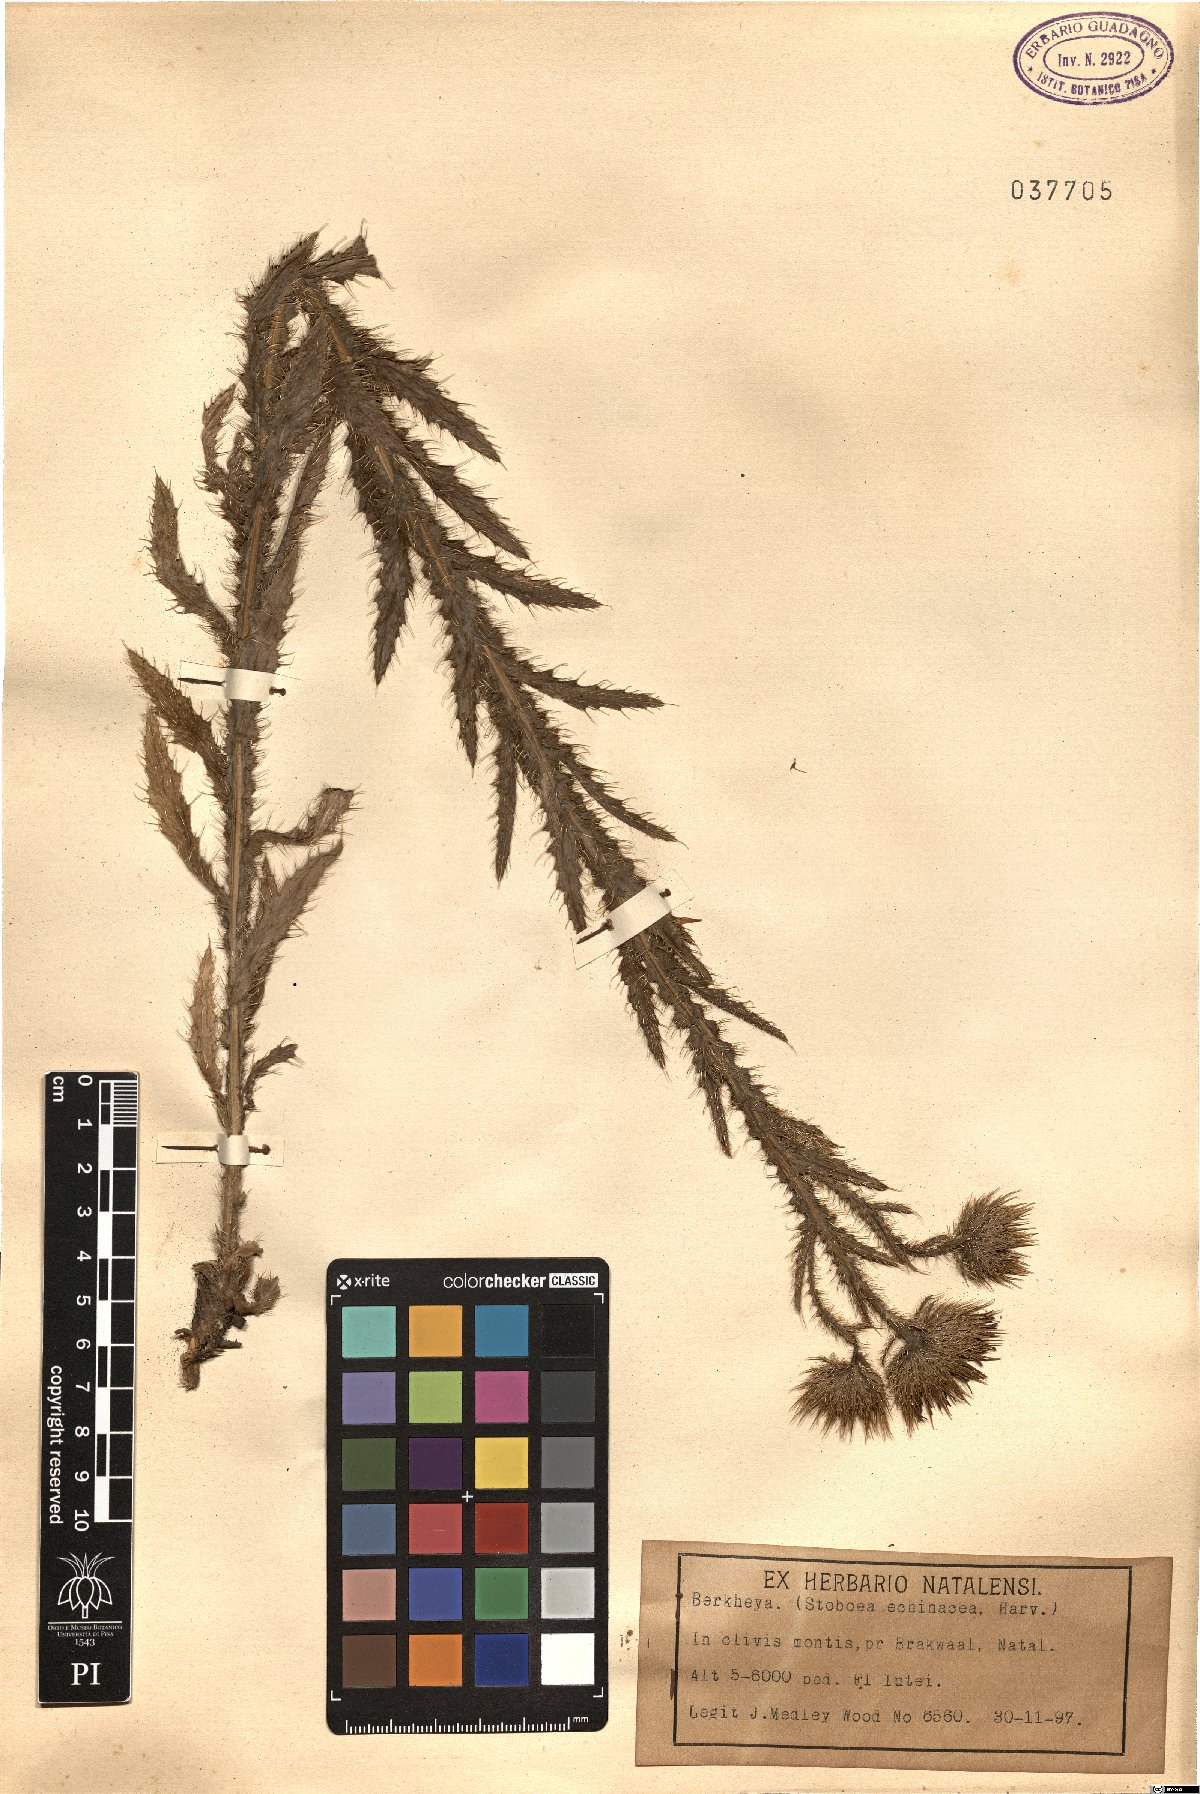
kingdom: Plantae
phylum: Tracheophyta
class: Magnoliopsida
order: Asterales
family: Asteraceae
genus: Berkheya
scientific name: Berkheya
